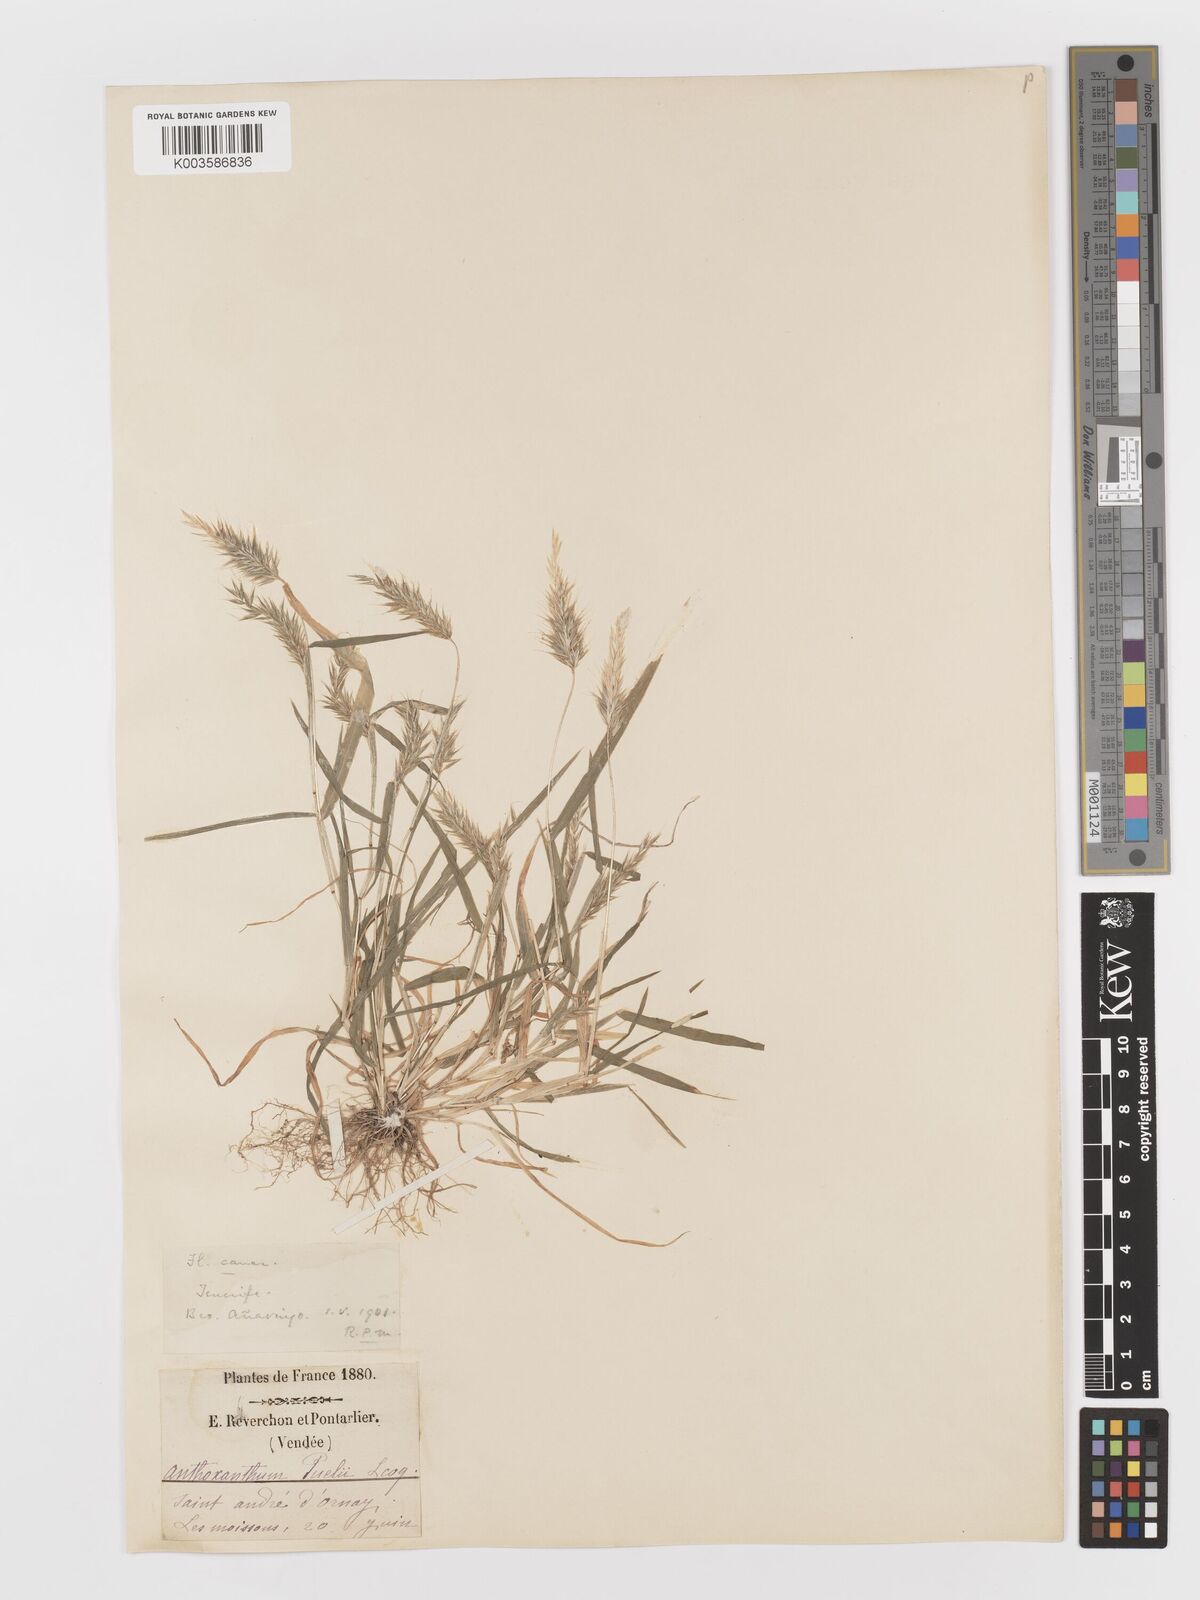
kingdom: Plantae
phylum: Tracheophyta
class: Liliopsida
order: Poales
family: Poaceae
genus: Anthoxanthum
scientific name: Anthoxanthum
